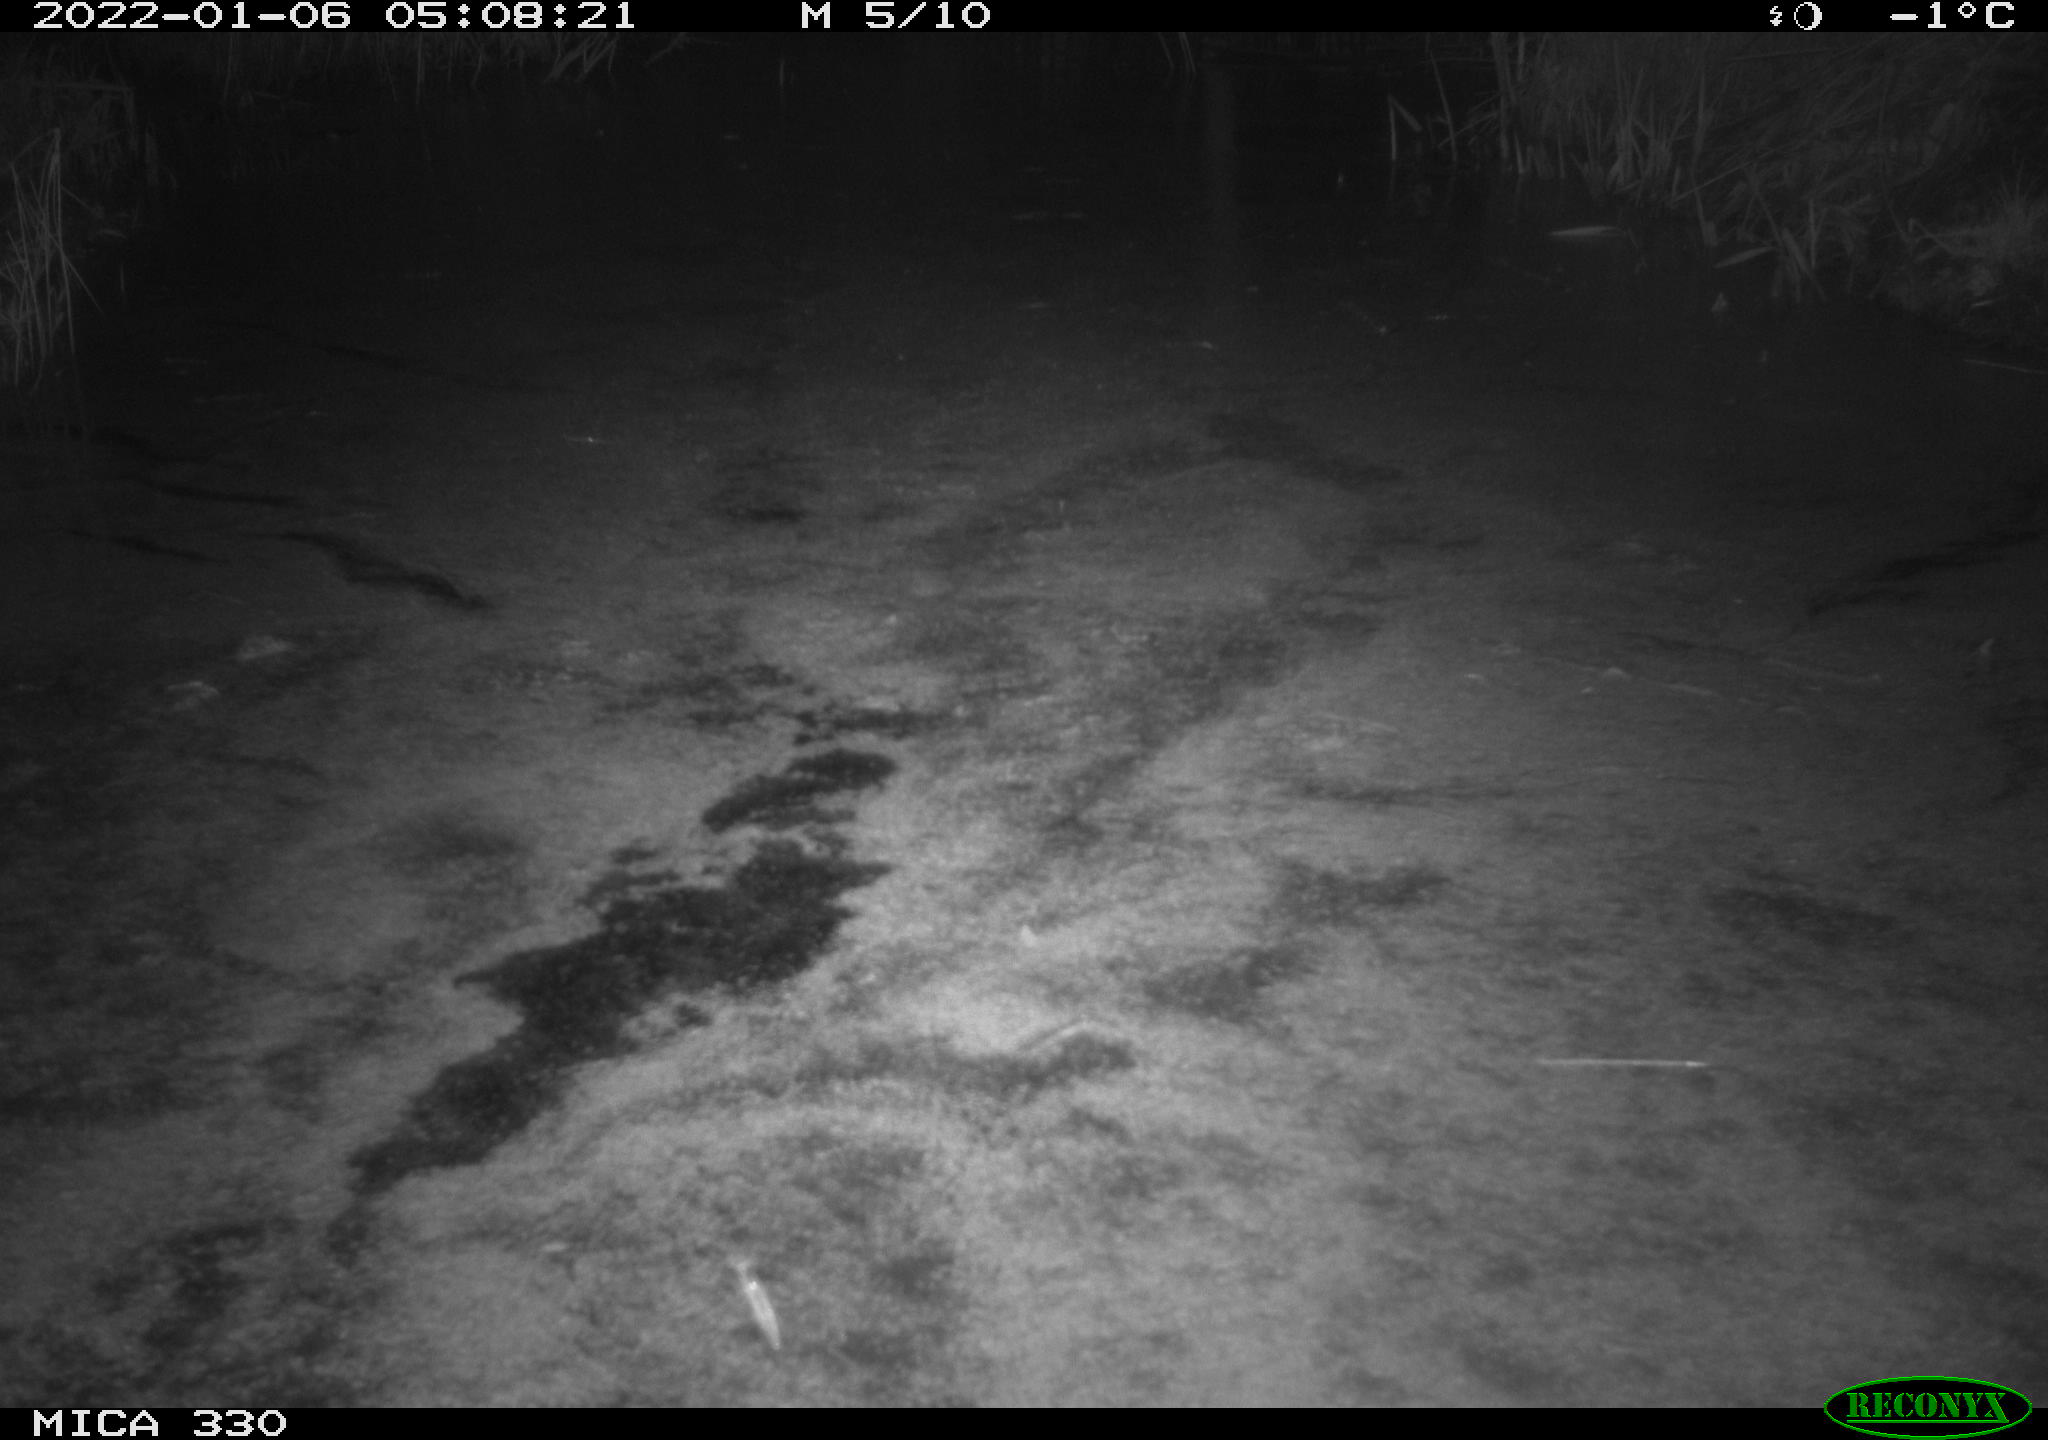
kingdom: Animalia
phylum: Chordata
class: Aves
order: Anseriformes
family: Anatidae
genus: Anas
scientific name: Anas platyrhynchos
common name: Mallard
